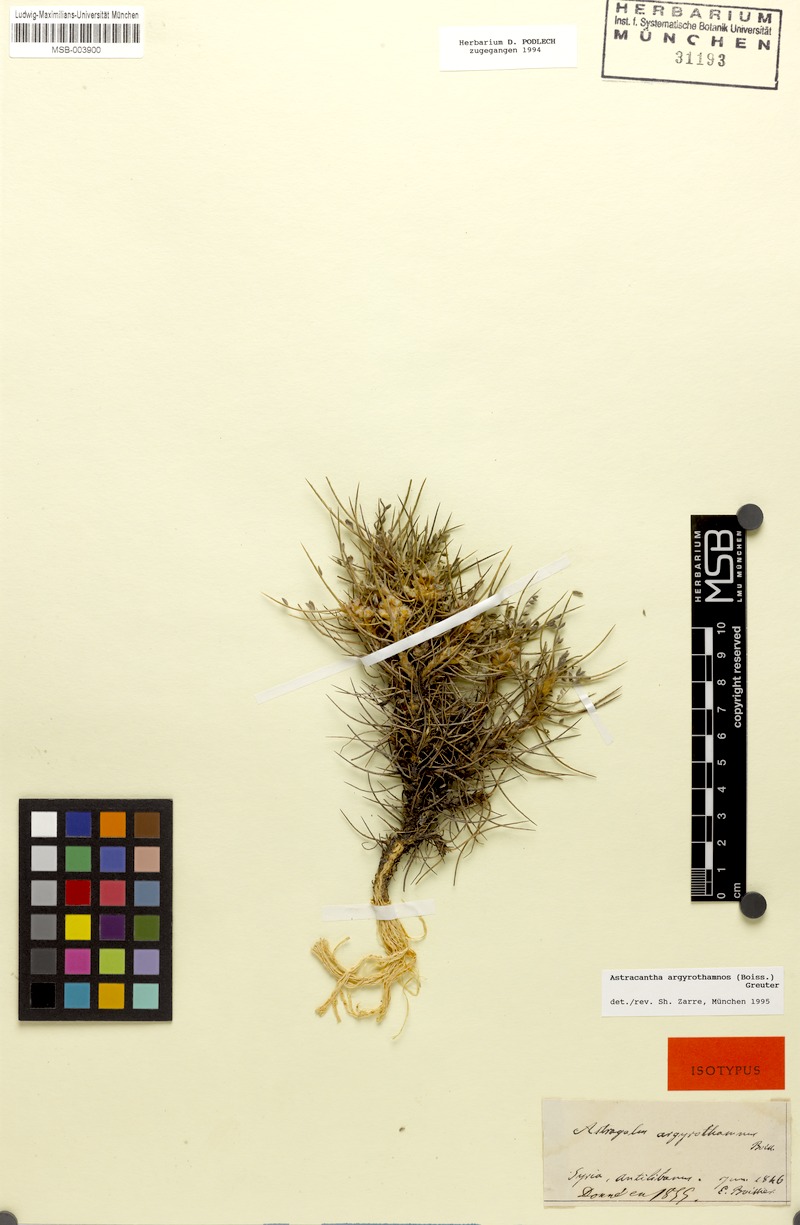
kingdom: Plantae
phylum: Tracheophyta
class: Magnoliopsida
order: Fabales
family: Fabaceae
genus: Astragalus
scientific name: Astragalus argyrothamnos
